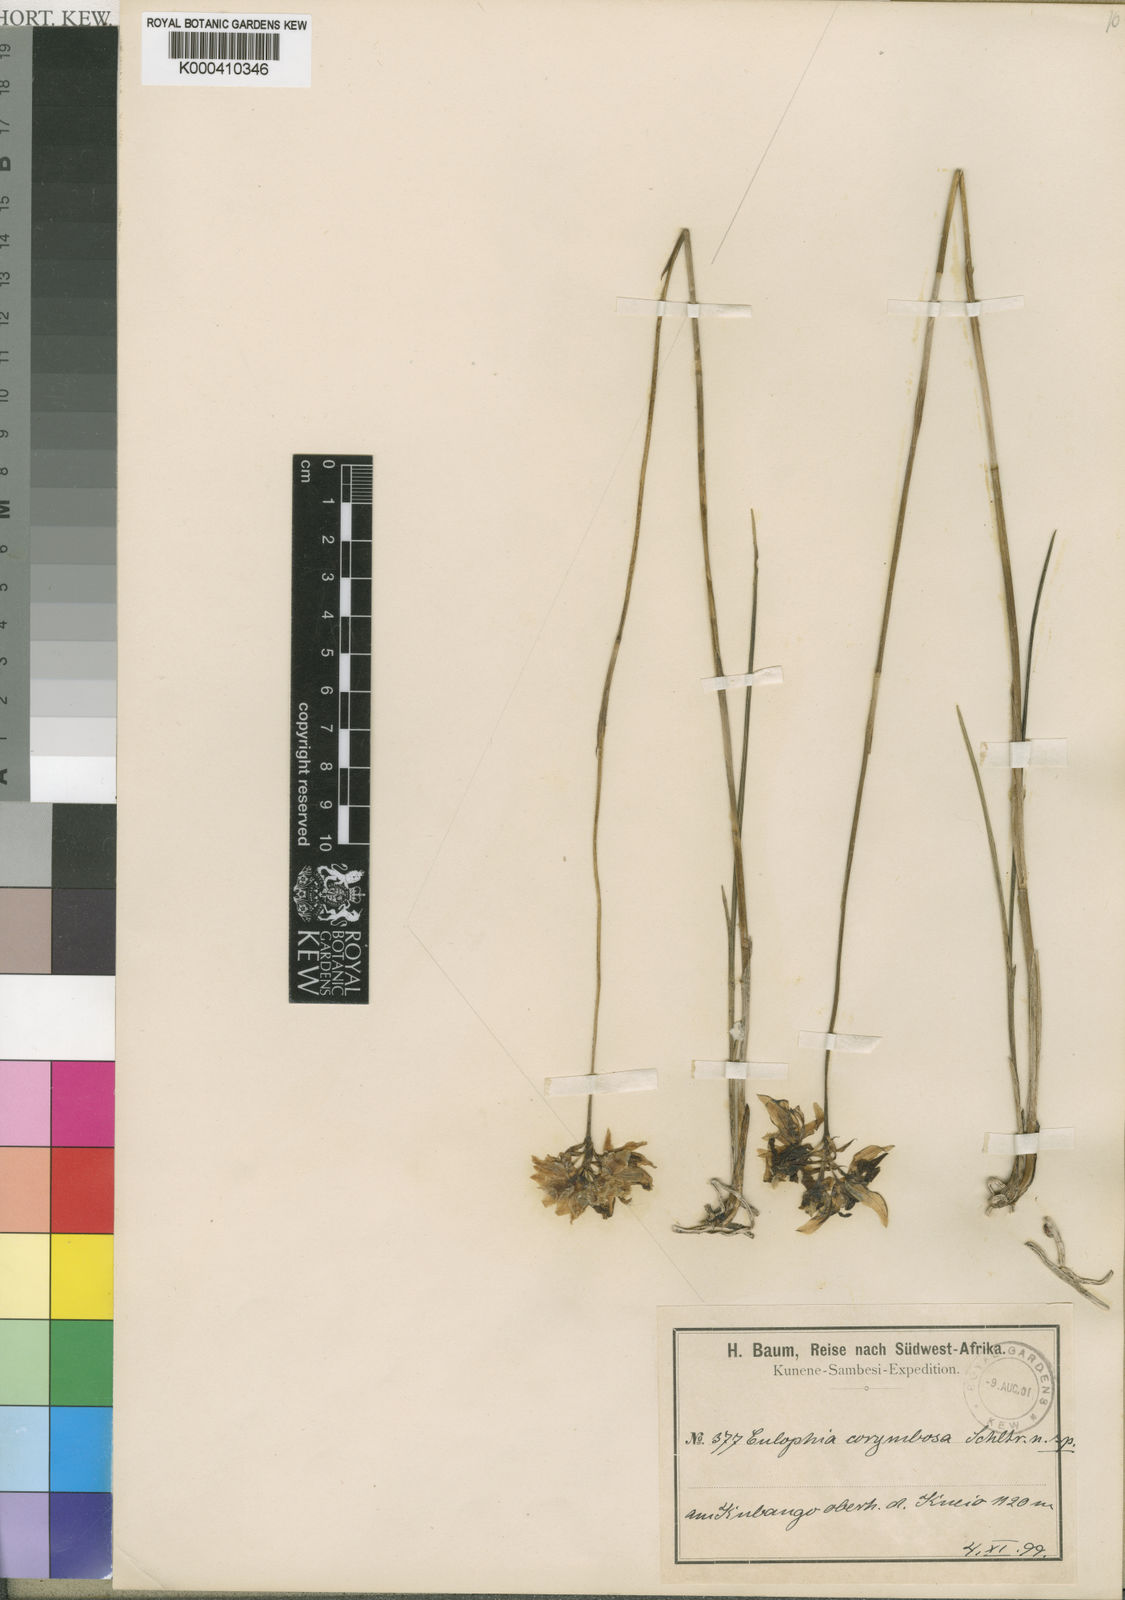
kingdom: Plantae
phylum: Tracheophyta
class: Liliopsida
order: Asparagales
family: Orchidaceae
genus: Eulophia
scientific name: Eulophia corymbosa
